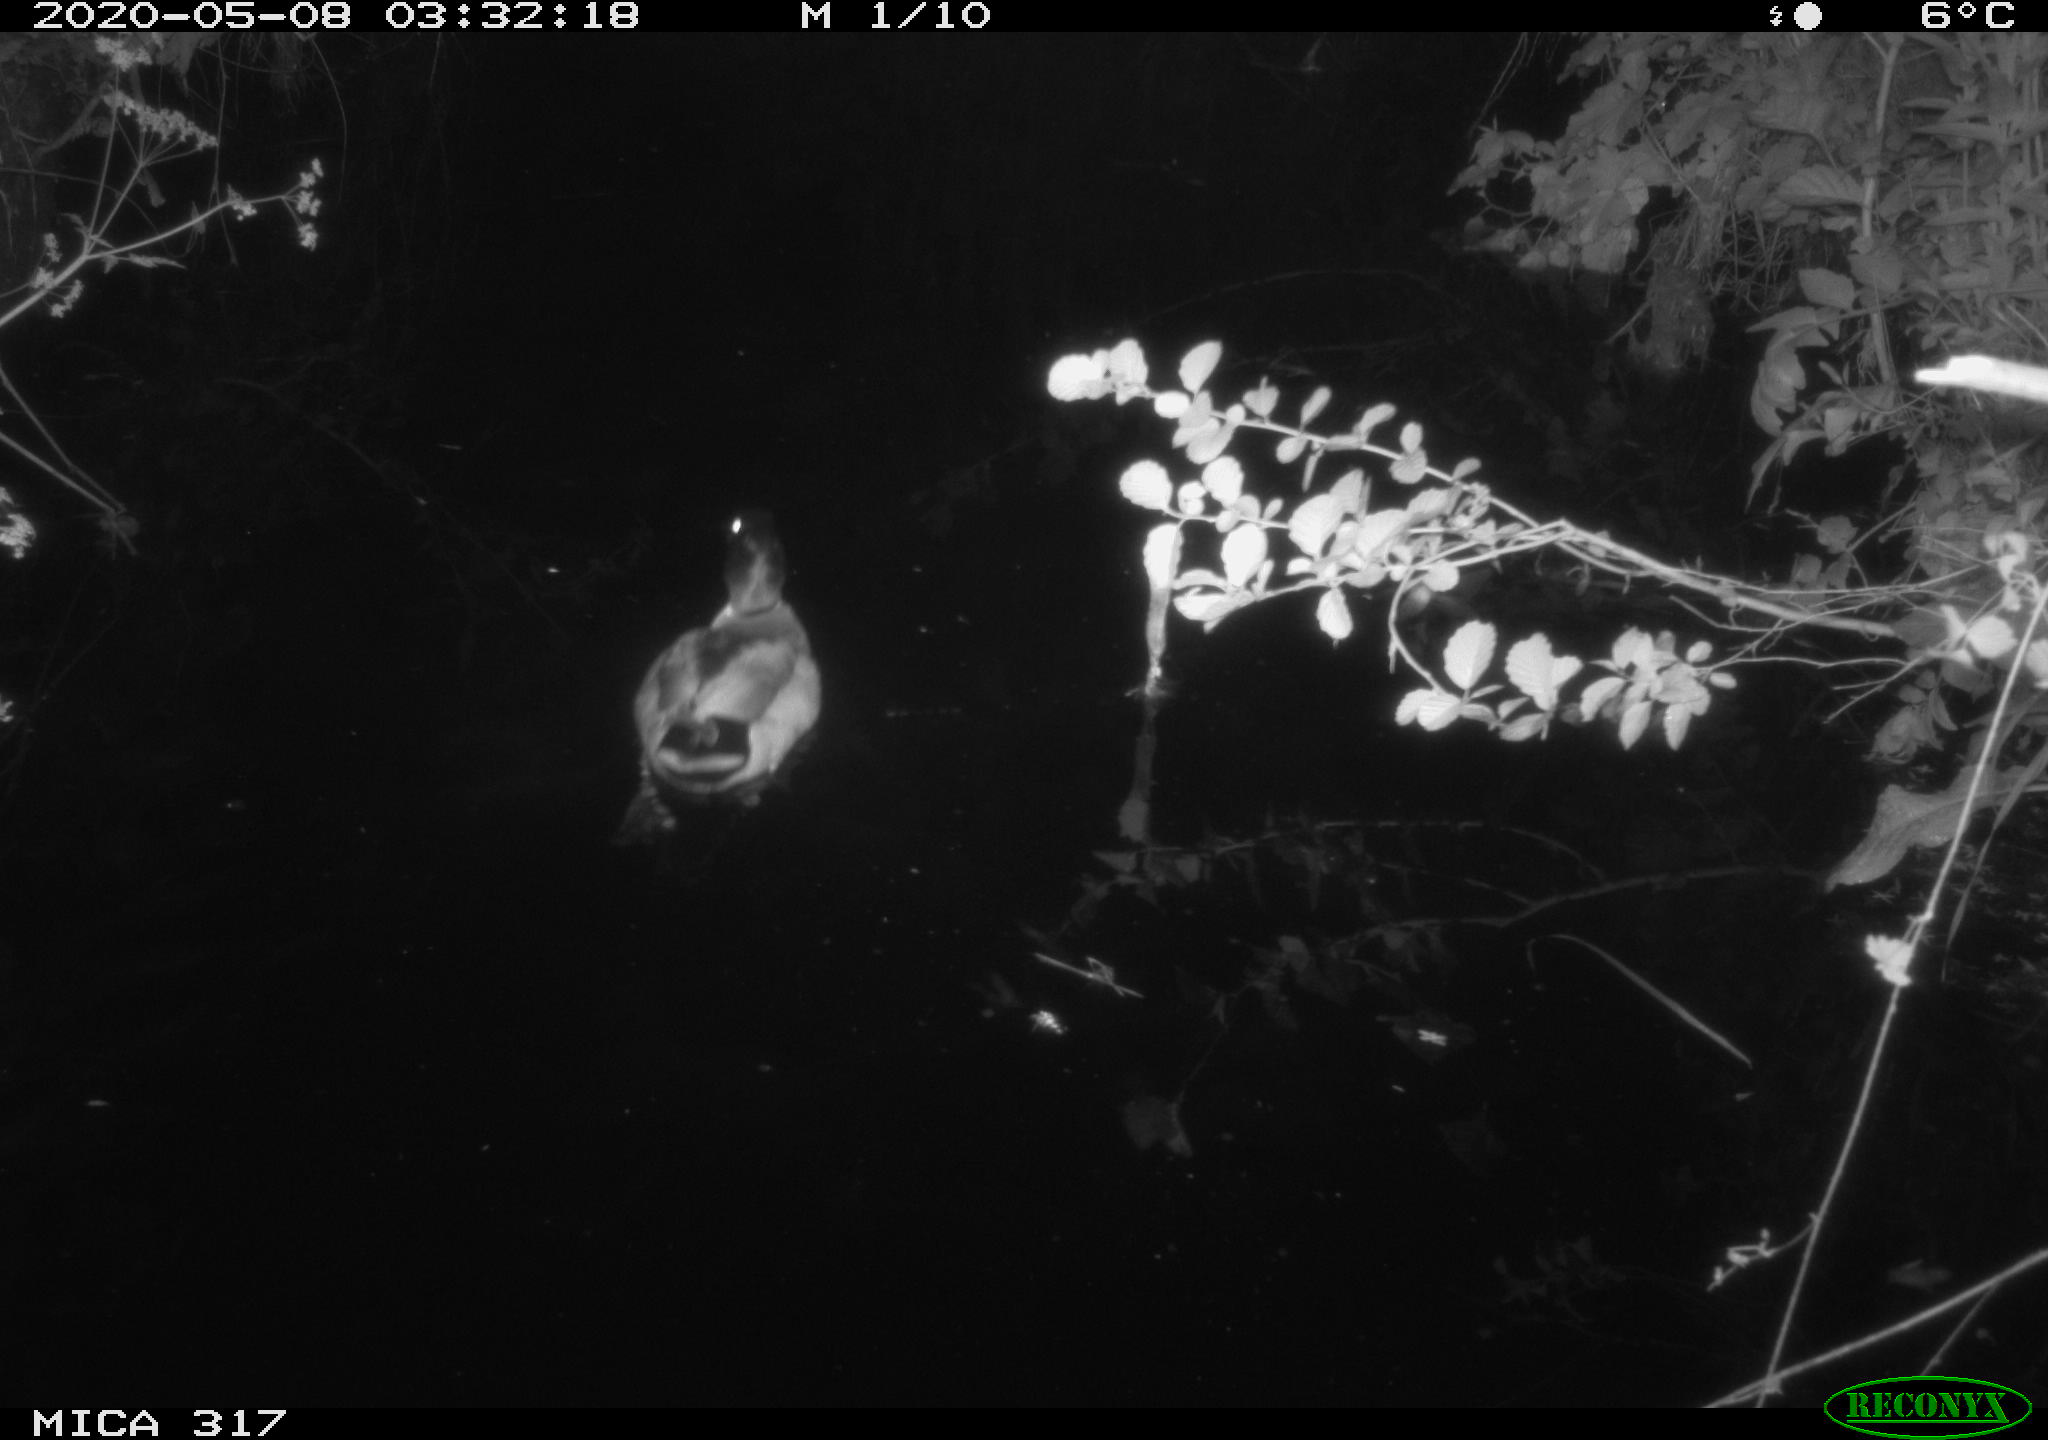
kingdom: Animalia
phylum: Chordata
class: Aves
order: Anseriformes
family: Anatidae
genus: Anas
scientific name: Anas platyrhynchos
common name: Mallard
